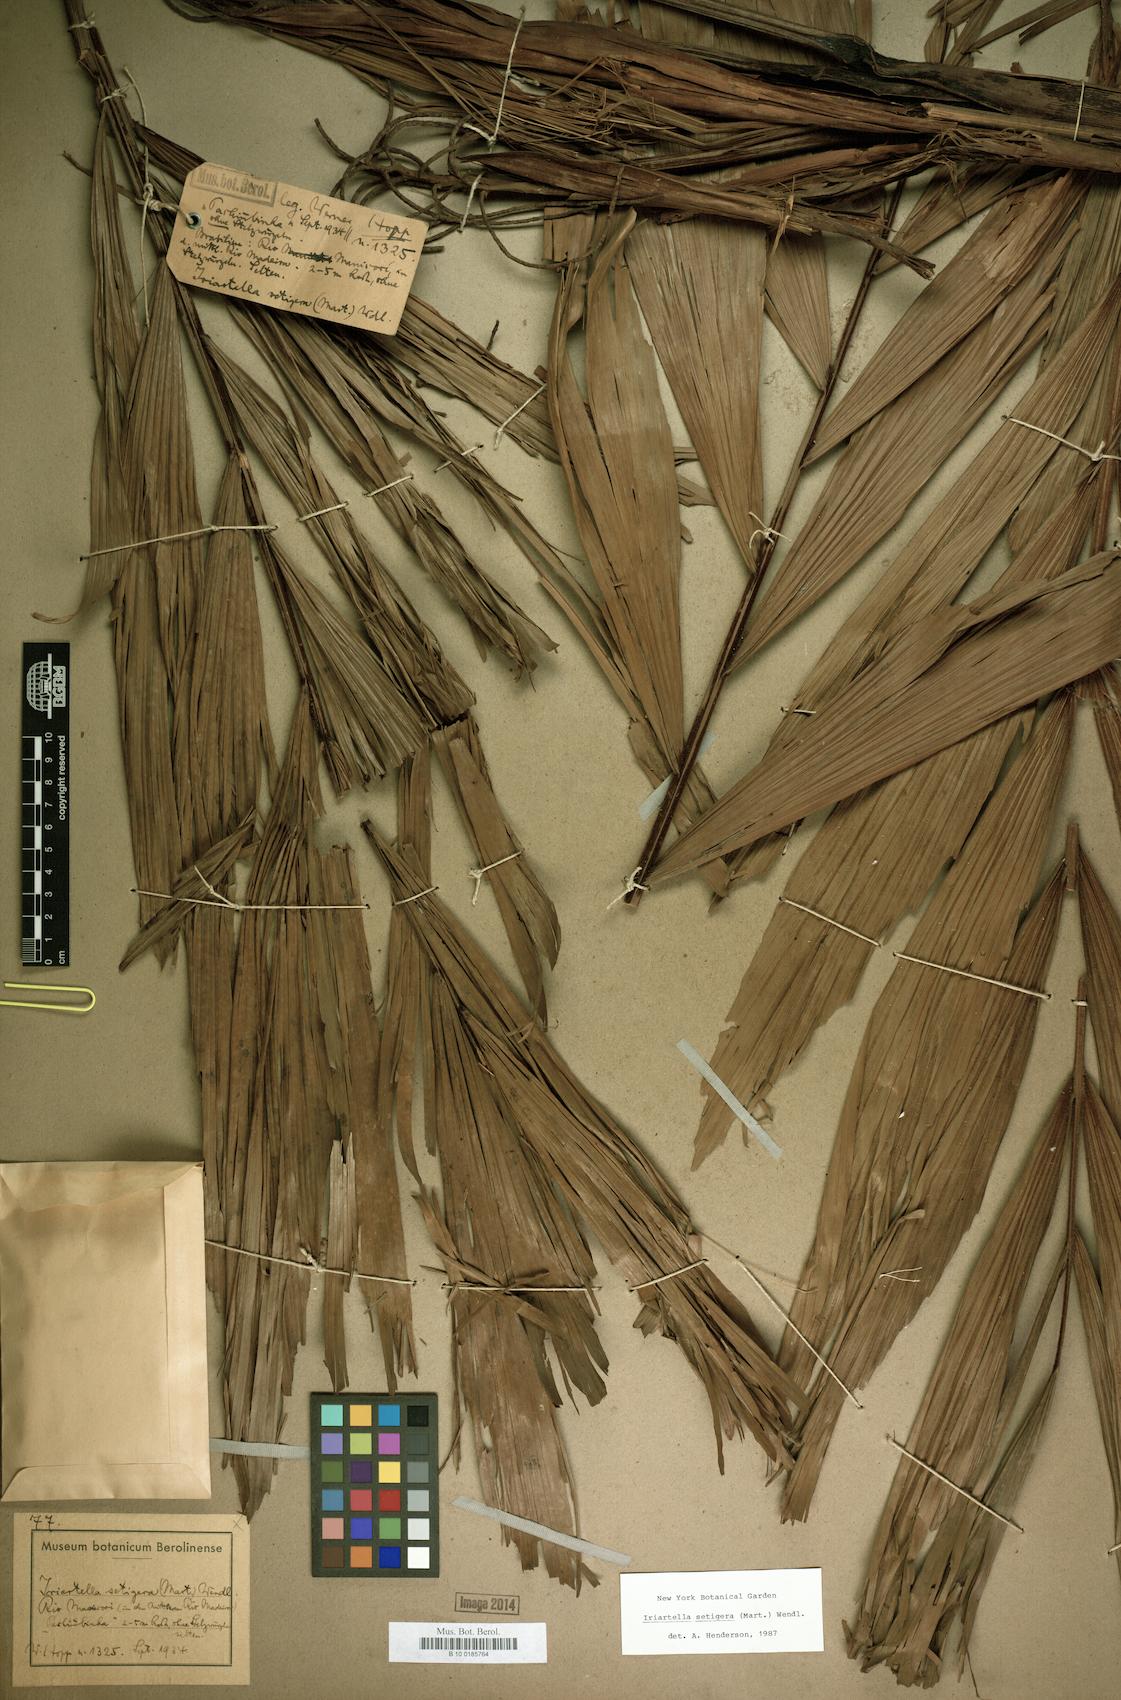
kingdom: Plantae
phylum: Tracheophyta
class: Liliopsida
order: Arecales
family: Arecaceae
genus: Iriartella
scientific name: Iriartella setigera
